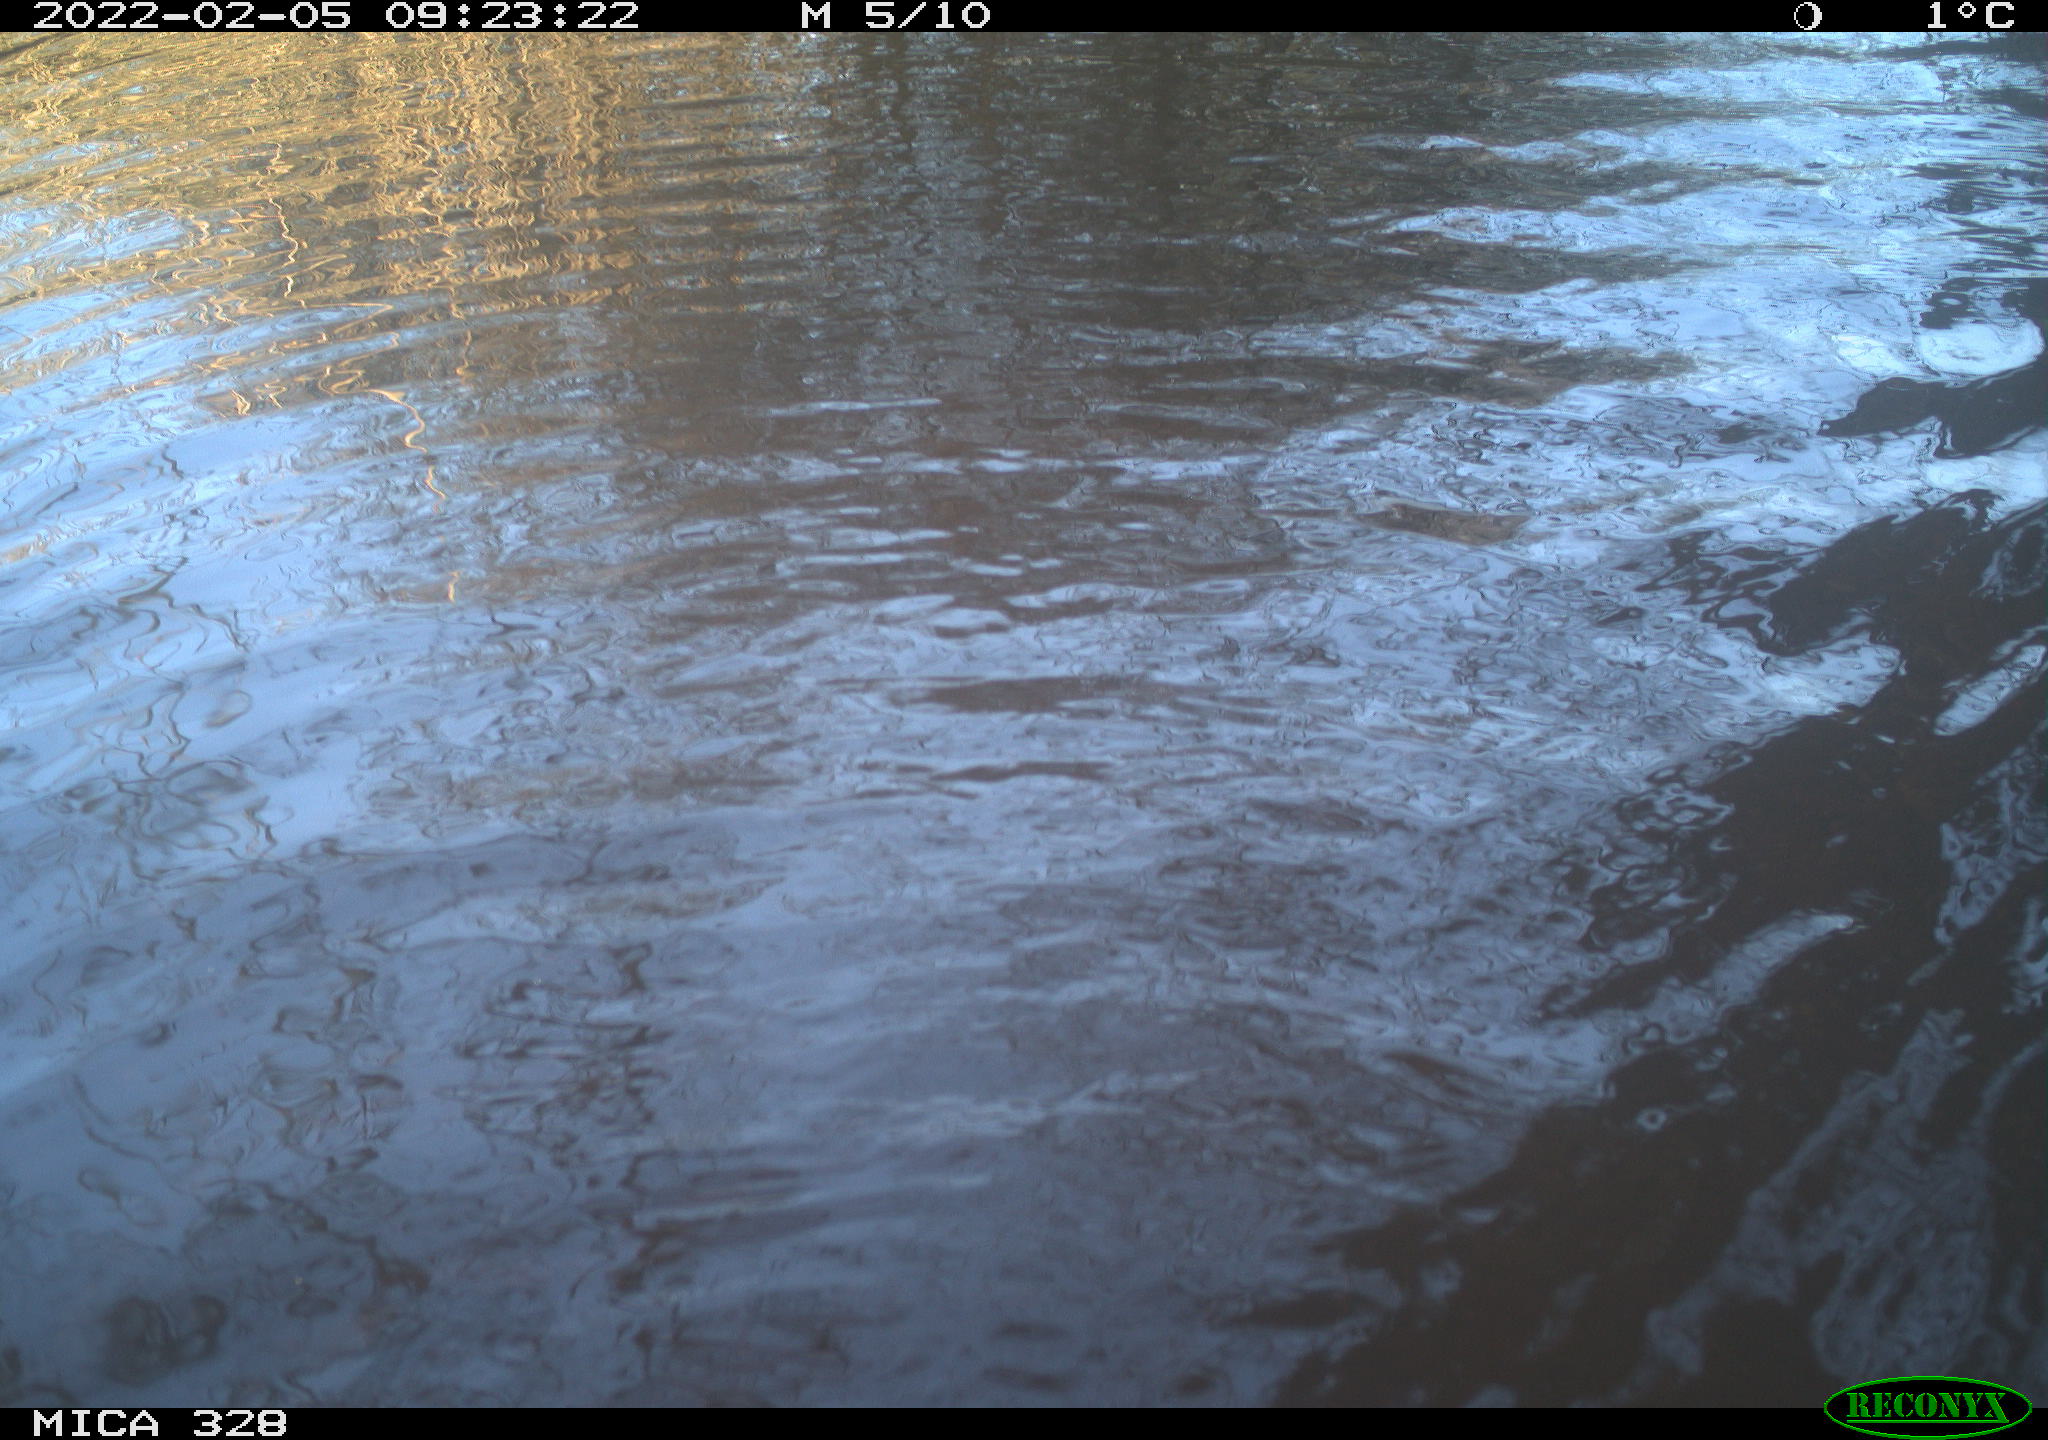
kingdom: Animalia
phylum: Chordata
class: Mammalia
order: Rodentia
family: Cricetidae
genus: Ondatra
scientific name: Ondatra zibethicus
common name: Muskrat
